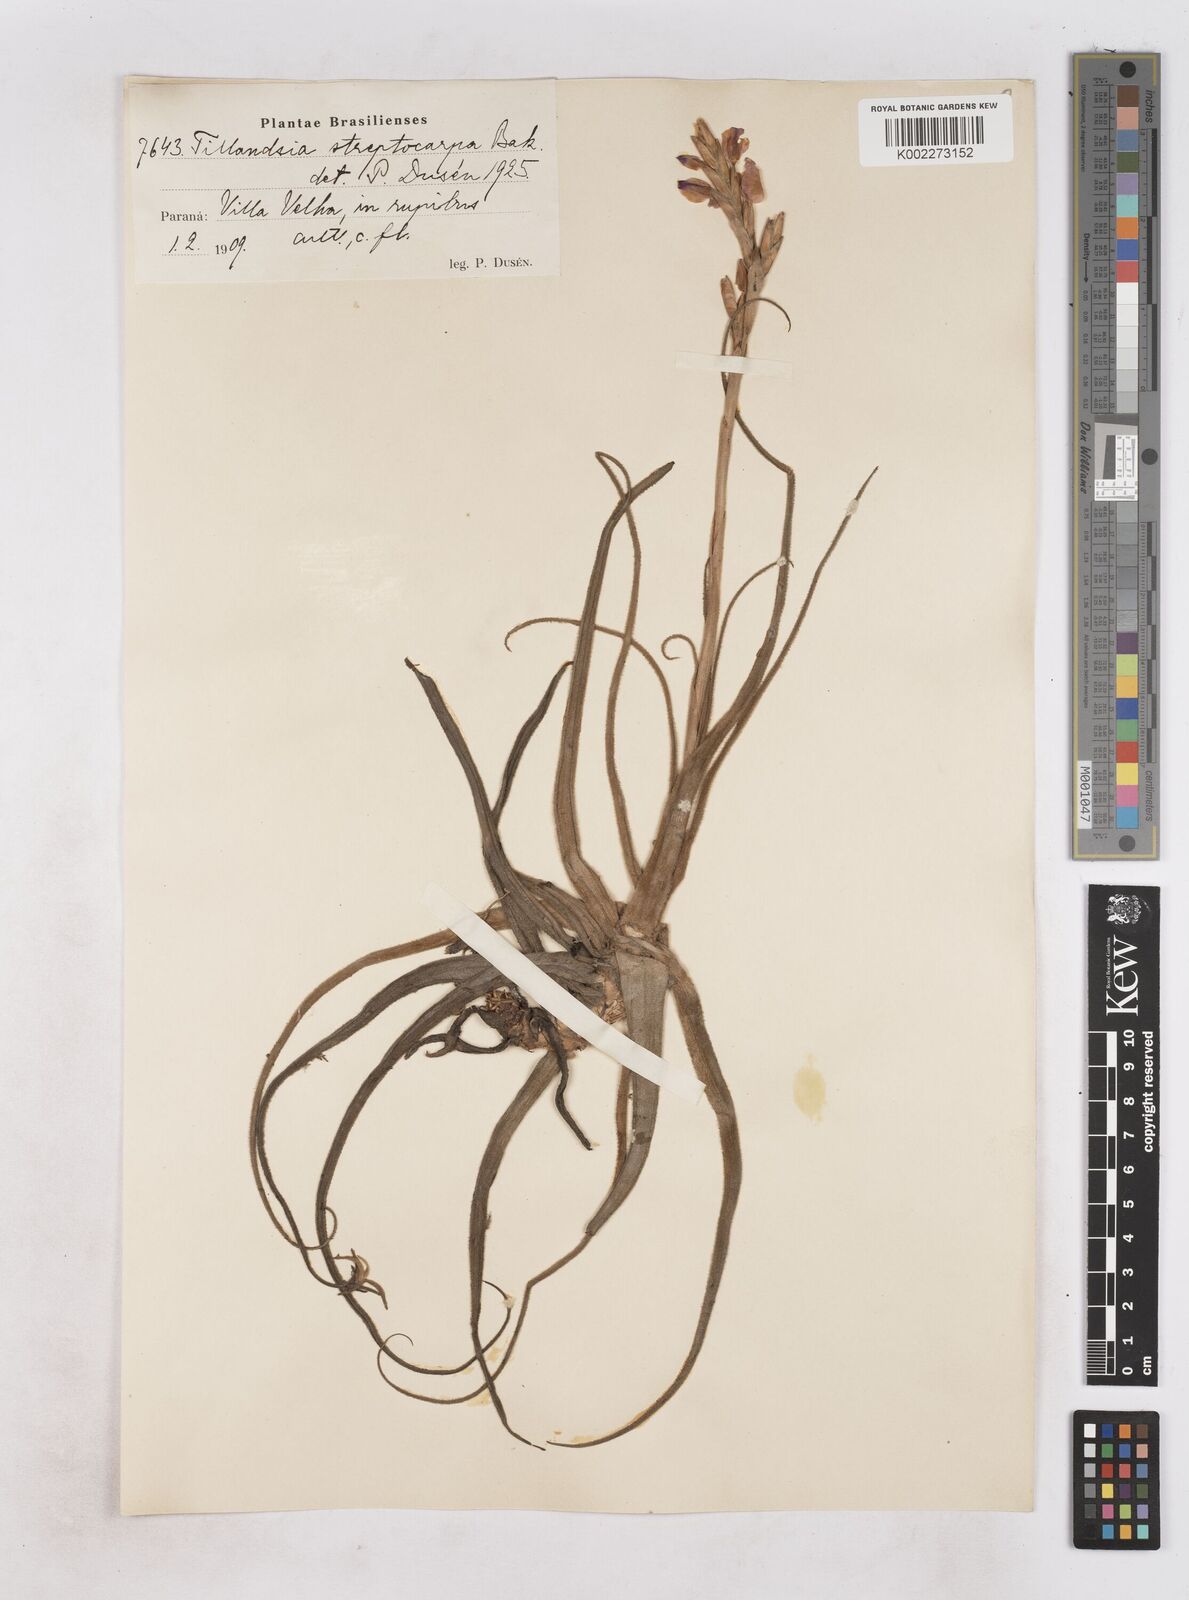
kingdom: Plantae
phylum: Tracheophyta
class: Liliopsida
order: Poales
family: Bromeliaceae
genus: Tillandsia
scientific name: Tillandsia streptocarpa
